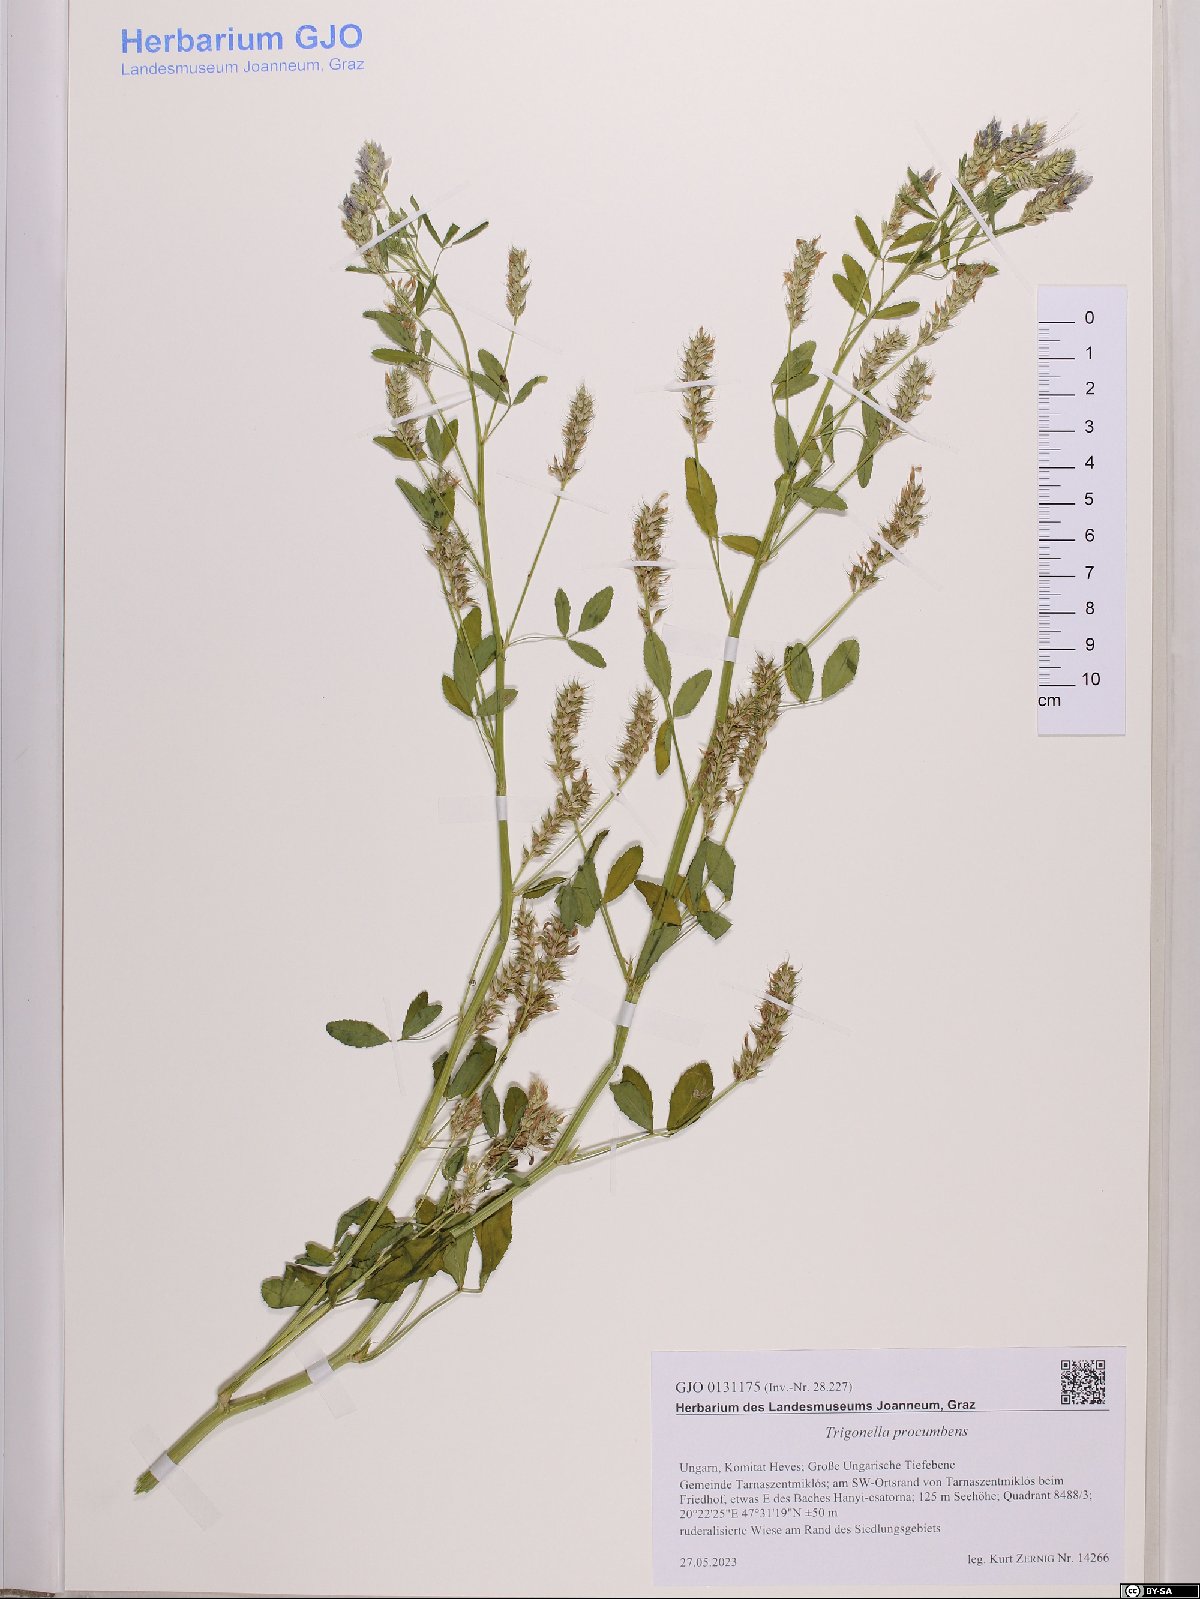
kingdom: Plantae
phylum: Tracheophyta
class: Magnoliopsida
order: Fabales
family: Fabaceae
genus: Trigonella
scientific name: Trigonella procumbens
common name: Trailing fenugreek
